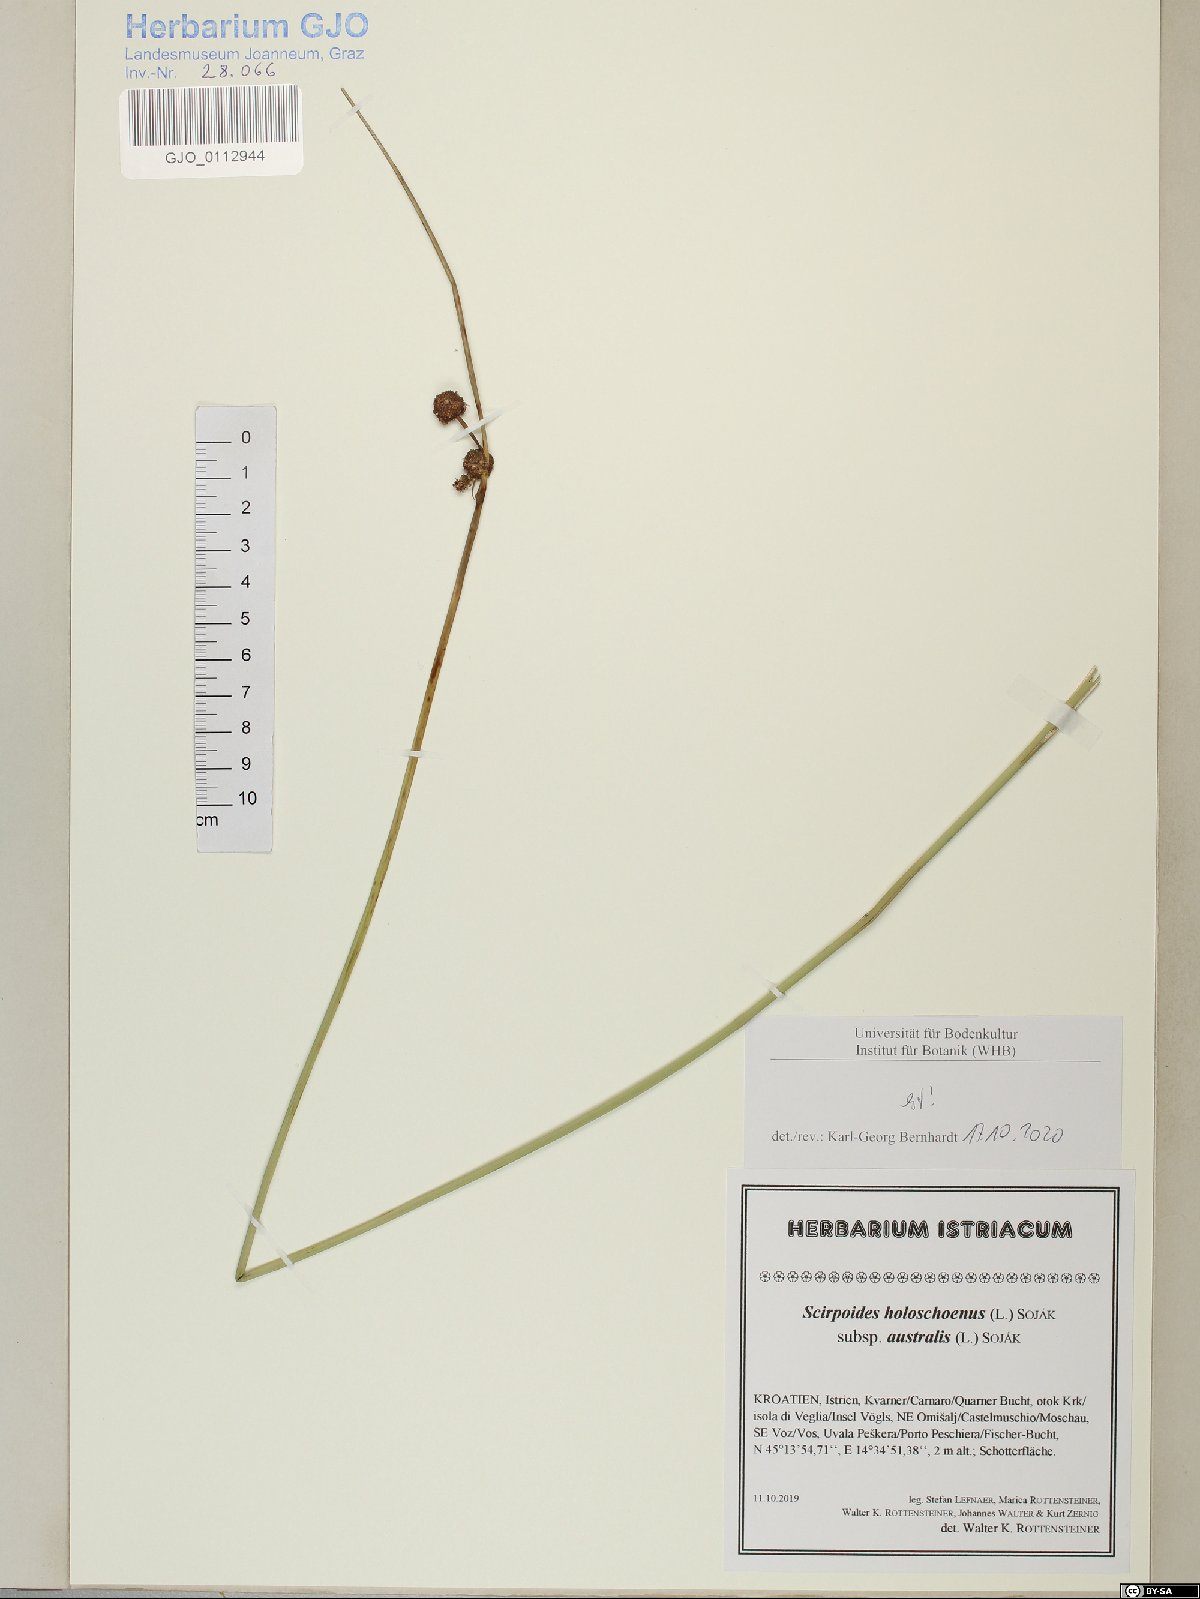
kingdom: Plantae
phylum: Tracheophyta
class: Liliopsida
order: Poales
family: Cyperaceae
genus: Scirpoides
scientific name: Scirpoides holoschoenus
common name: Round-headed club-rush
